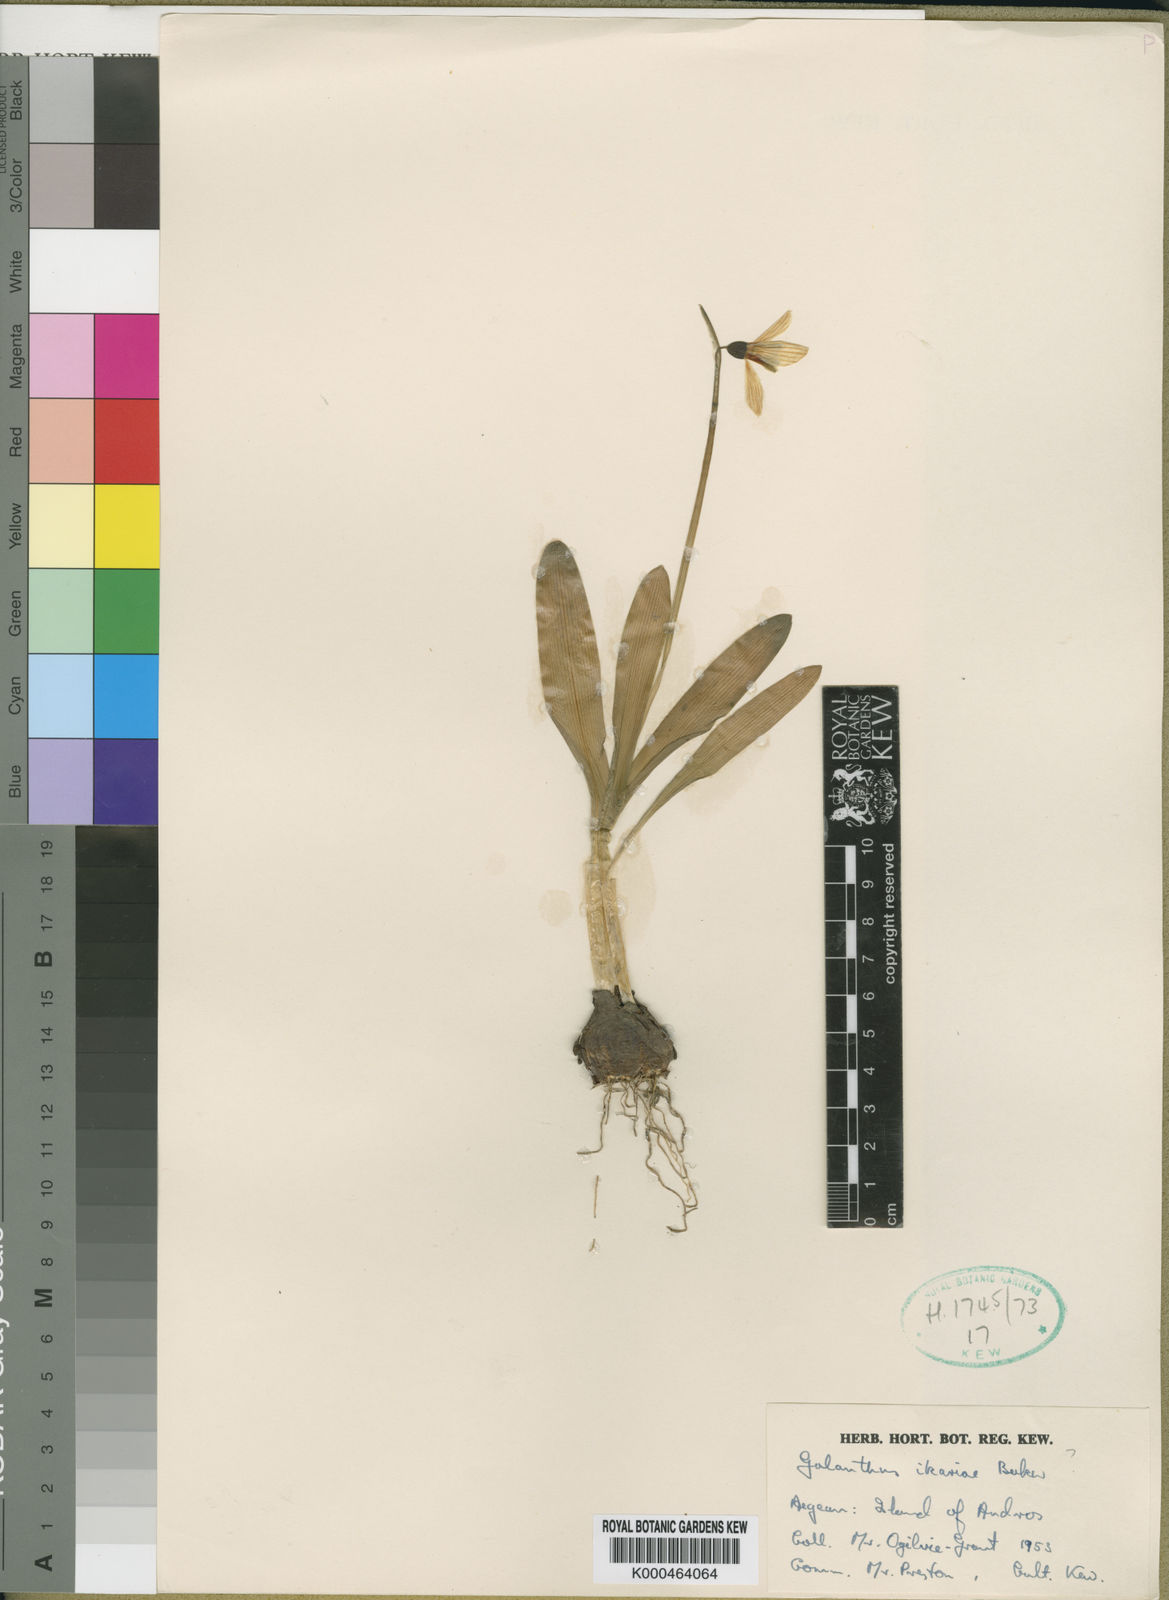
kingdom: Plantae
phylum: Tracheophyta
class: Liliopsida
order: Asparagales
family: Amaryllidaceae
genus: Galanthus
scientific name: Galanthus ikariae
